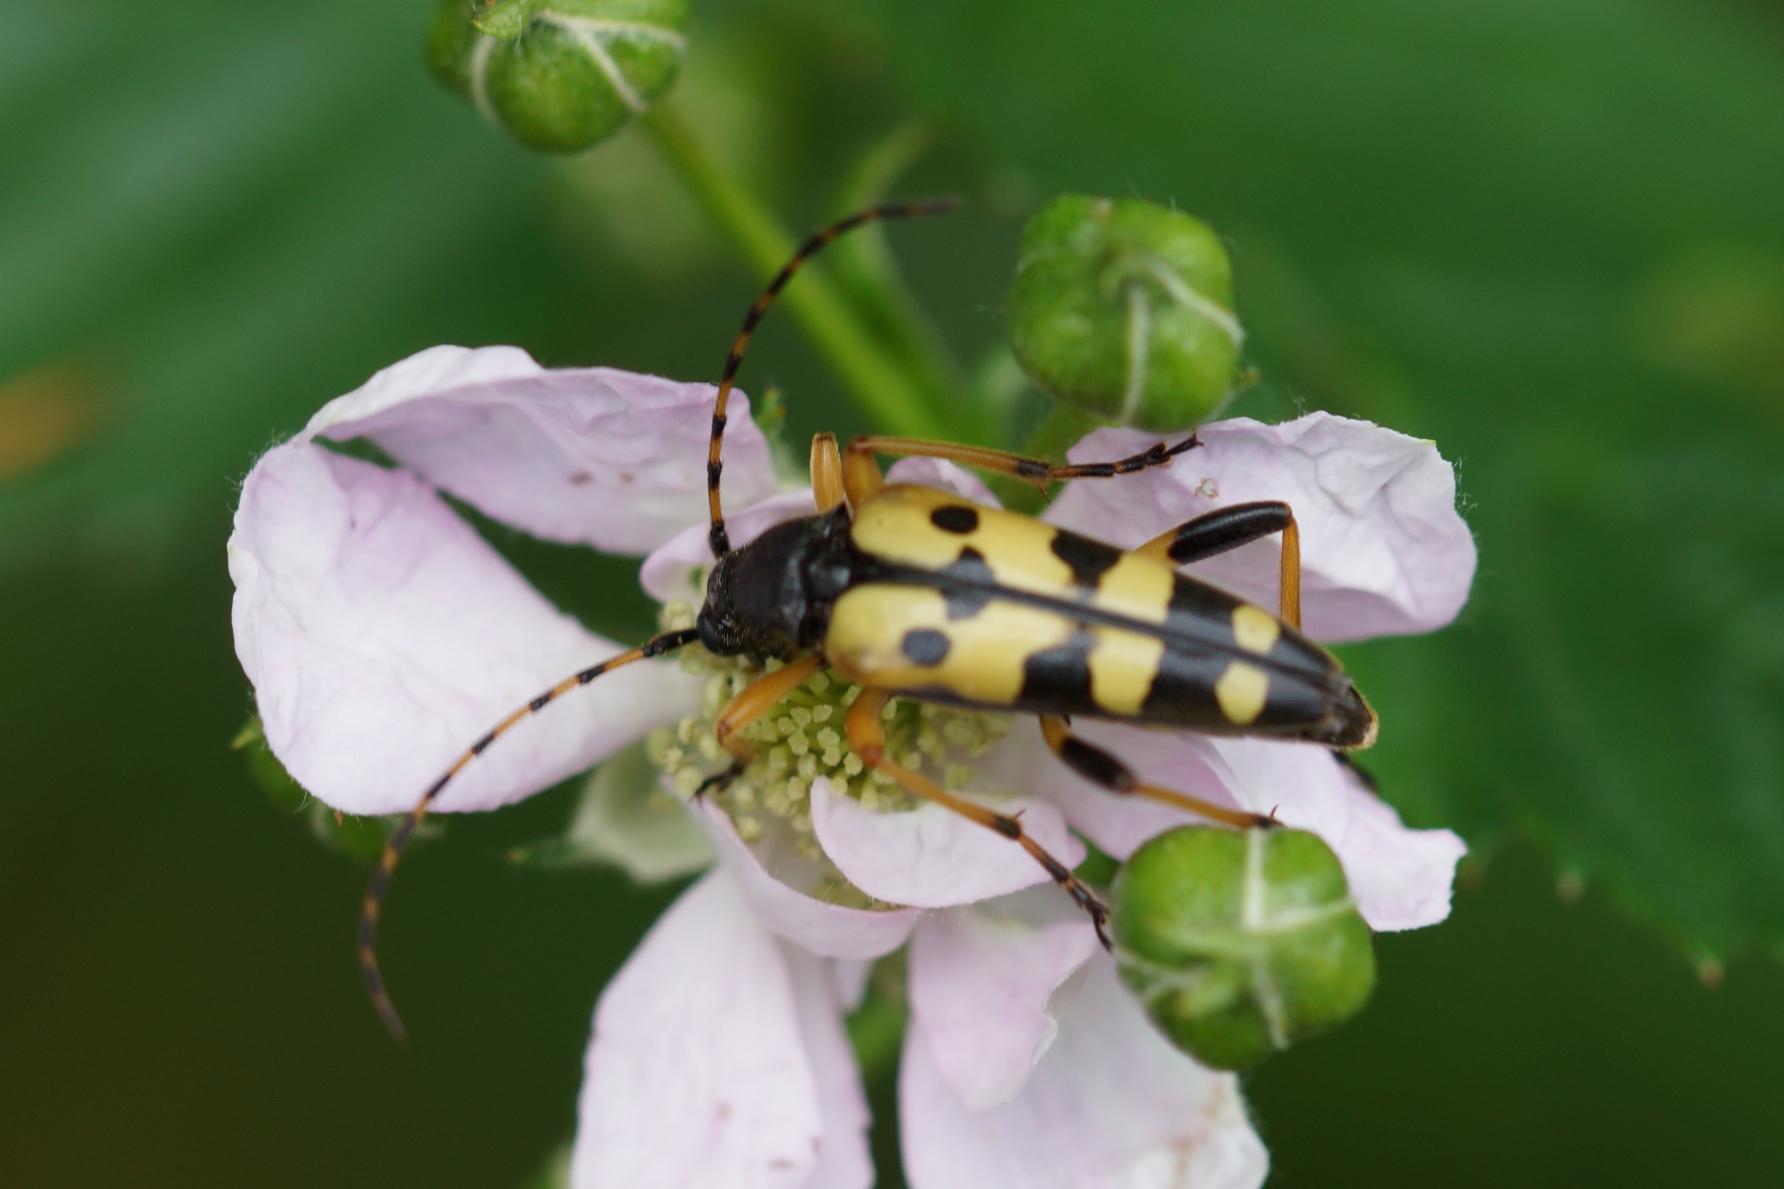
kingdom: Animalia
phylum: Arthropoda
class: Insecta
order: Coleoptera
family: Cerambycidae
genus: Rutpela
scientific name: Rutpela maculata
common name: Sydlig blomsterbuk
